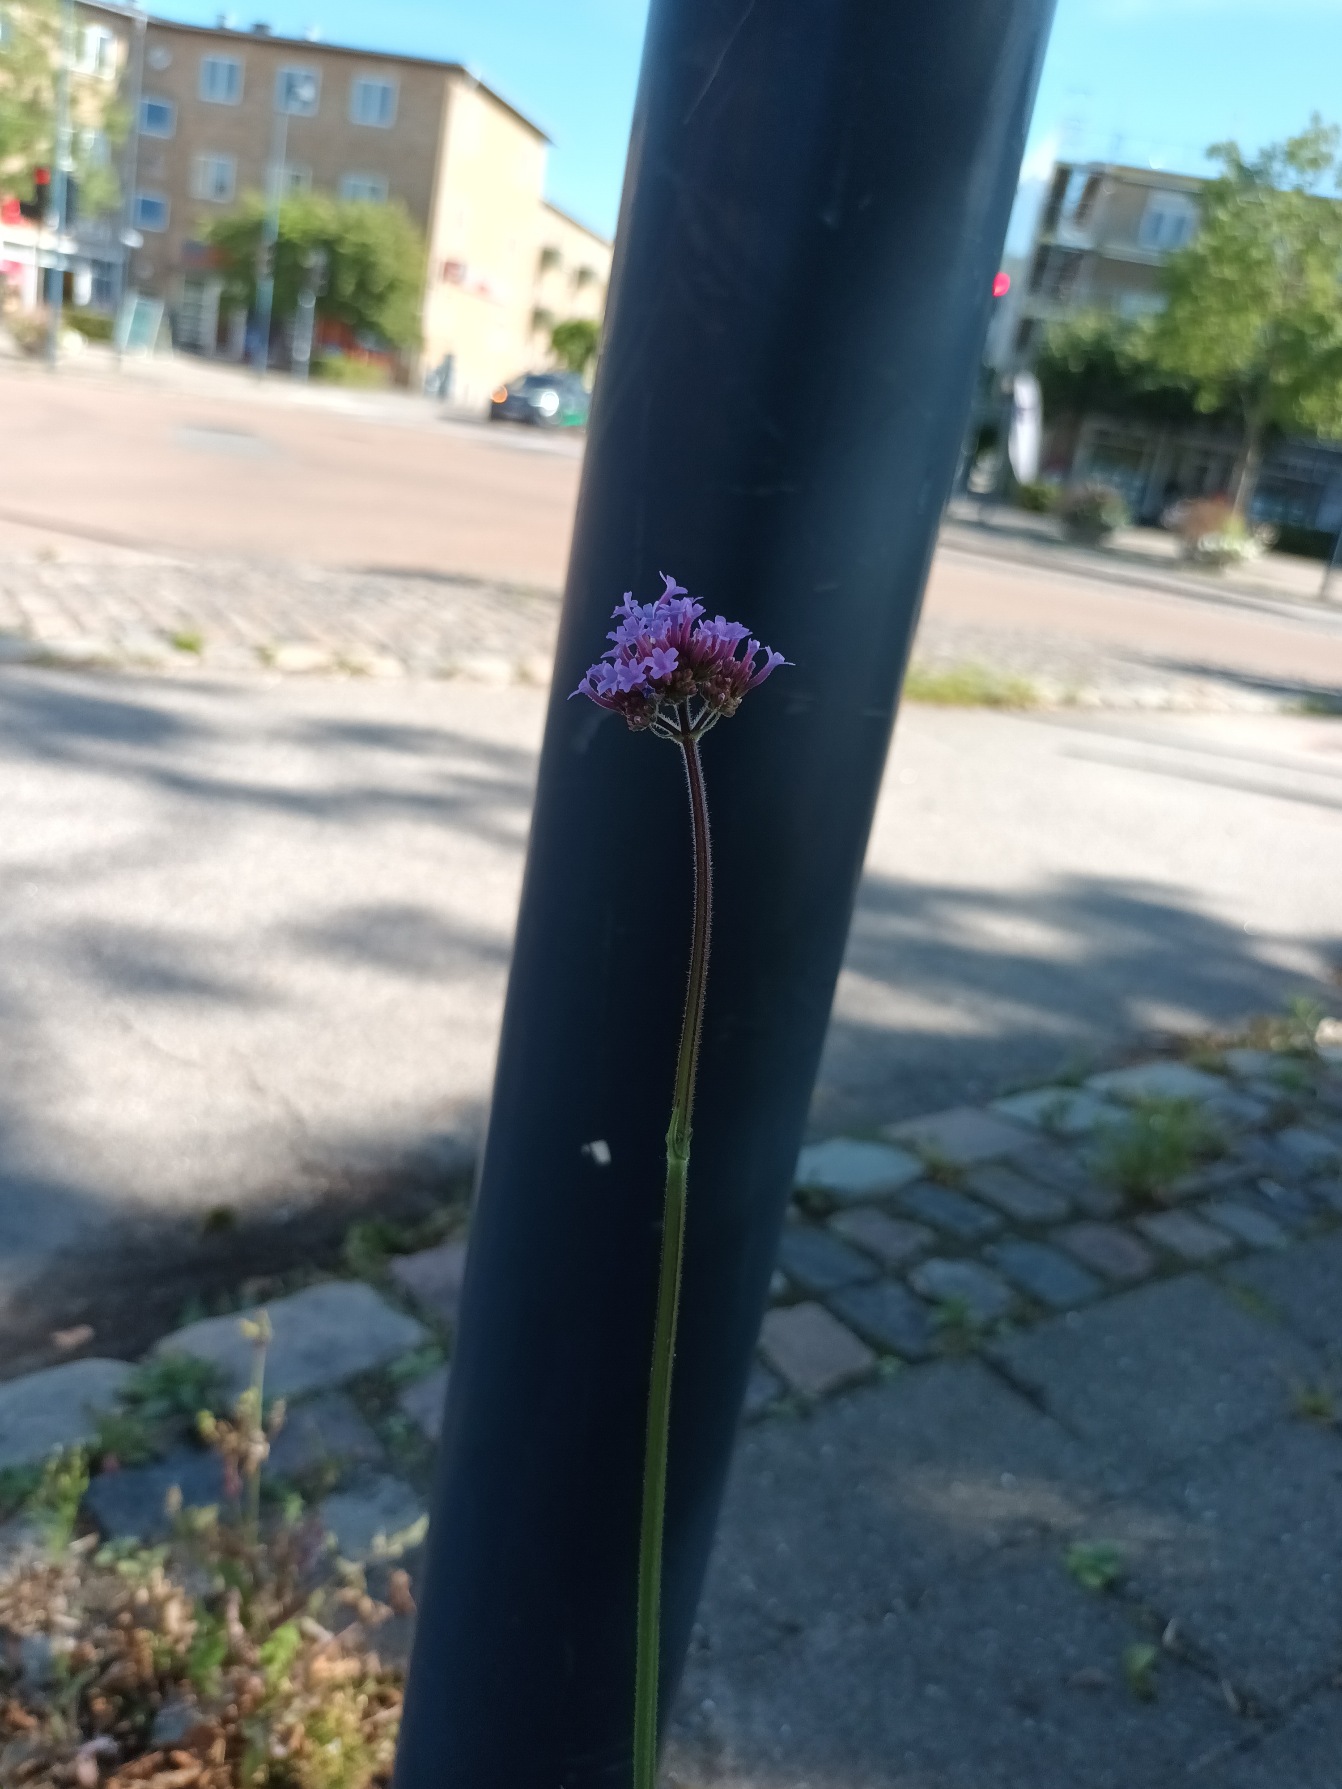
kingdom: Plantae
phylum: Tracheophyta
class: Magnoliopsida
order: Lamiales
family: Verbenaceae
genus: Verbena
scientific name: Verbena bonariensis
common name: Kæmpe-jernurt
